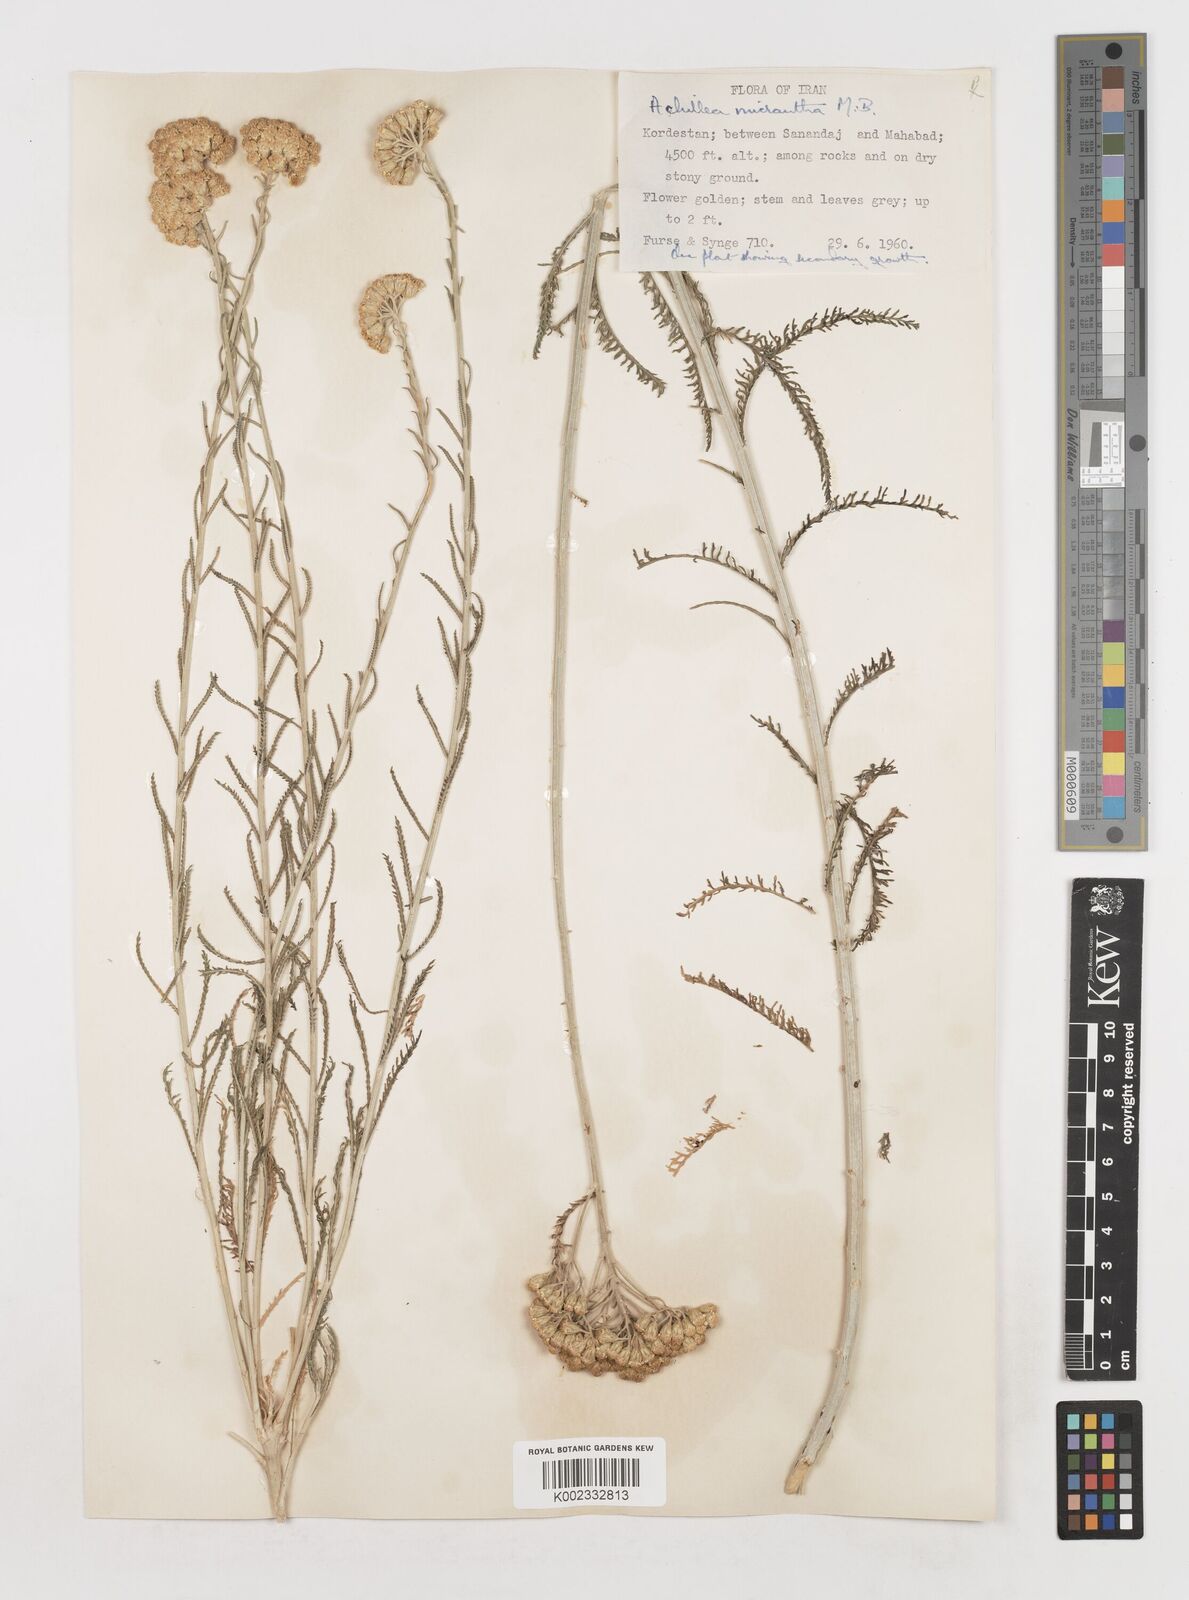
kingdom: Plantae
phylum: Tracheophyta
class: Magnoliopsida
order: Asterales
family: Asteraceae
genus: Achillea
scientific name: Achillea arabica
